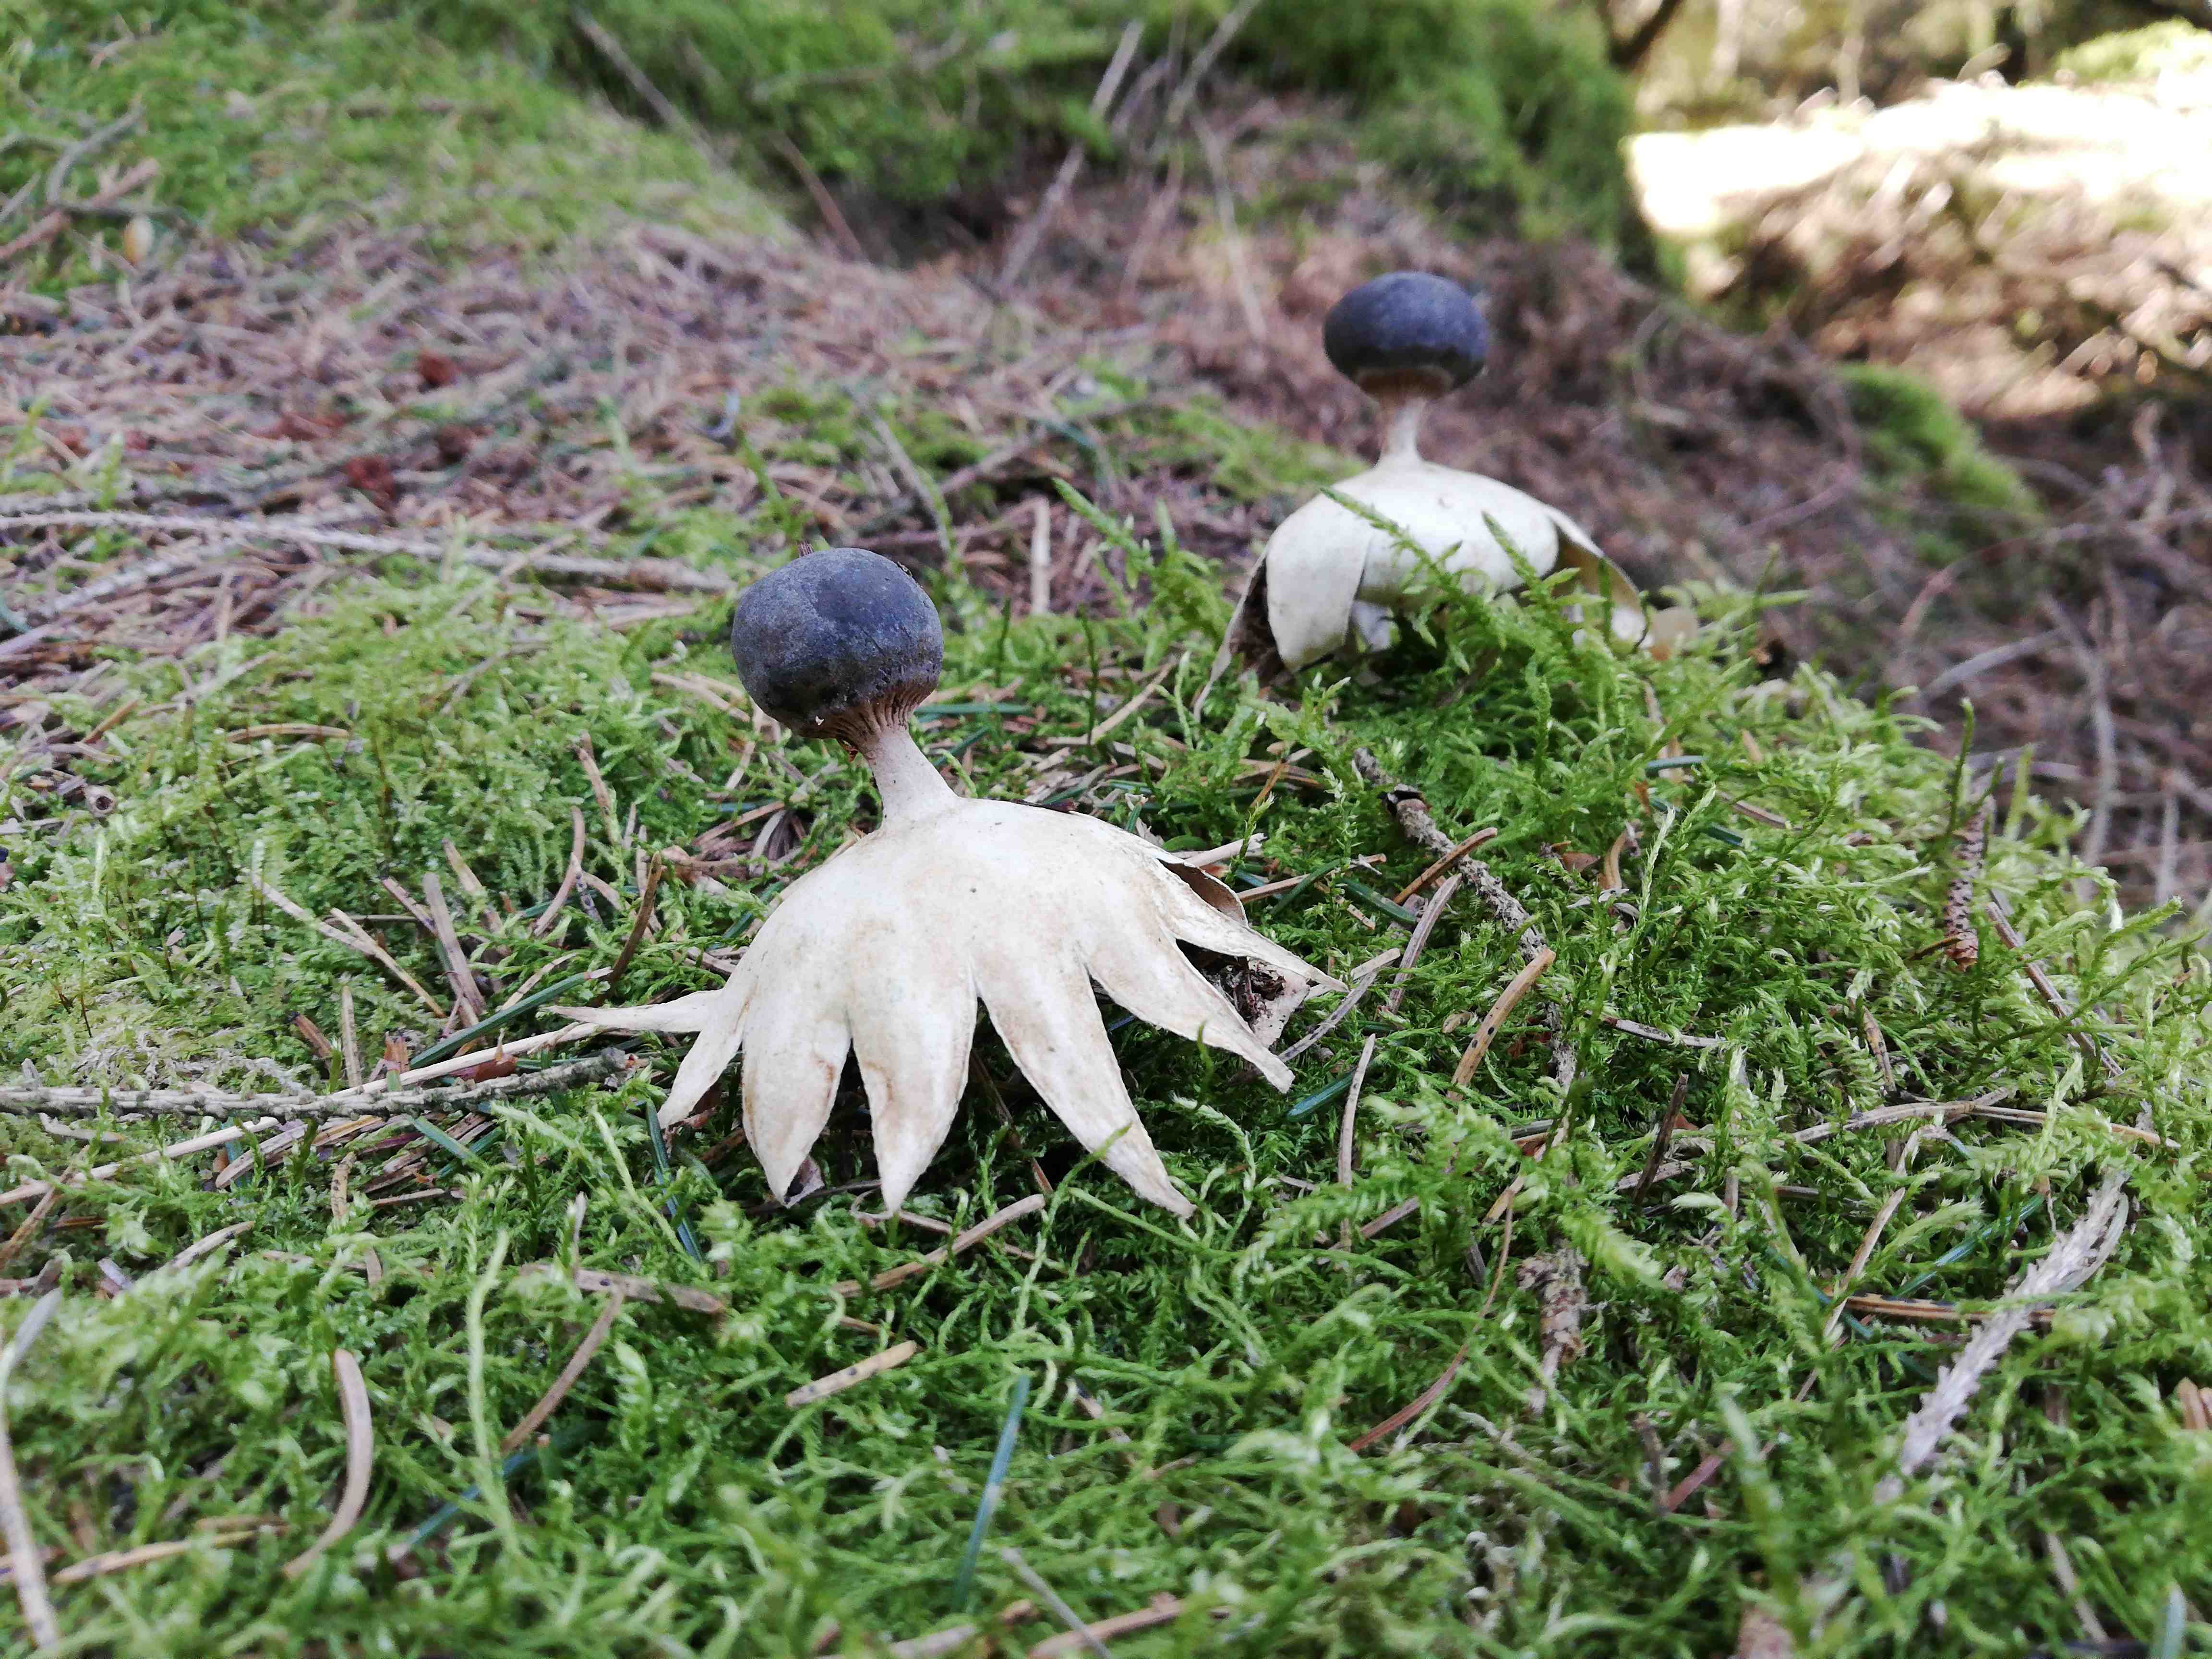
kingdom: Fungi
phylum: Basidiomycota
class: Agaricomycetes
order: Geastrales
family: Geastraceae
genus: Geastrum
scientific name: Geastrum pectinatum
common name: stilket stjernebold
